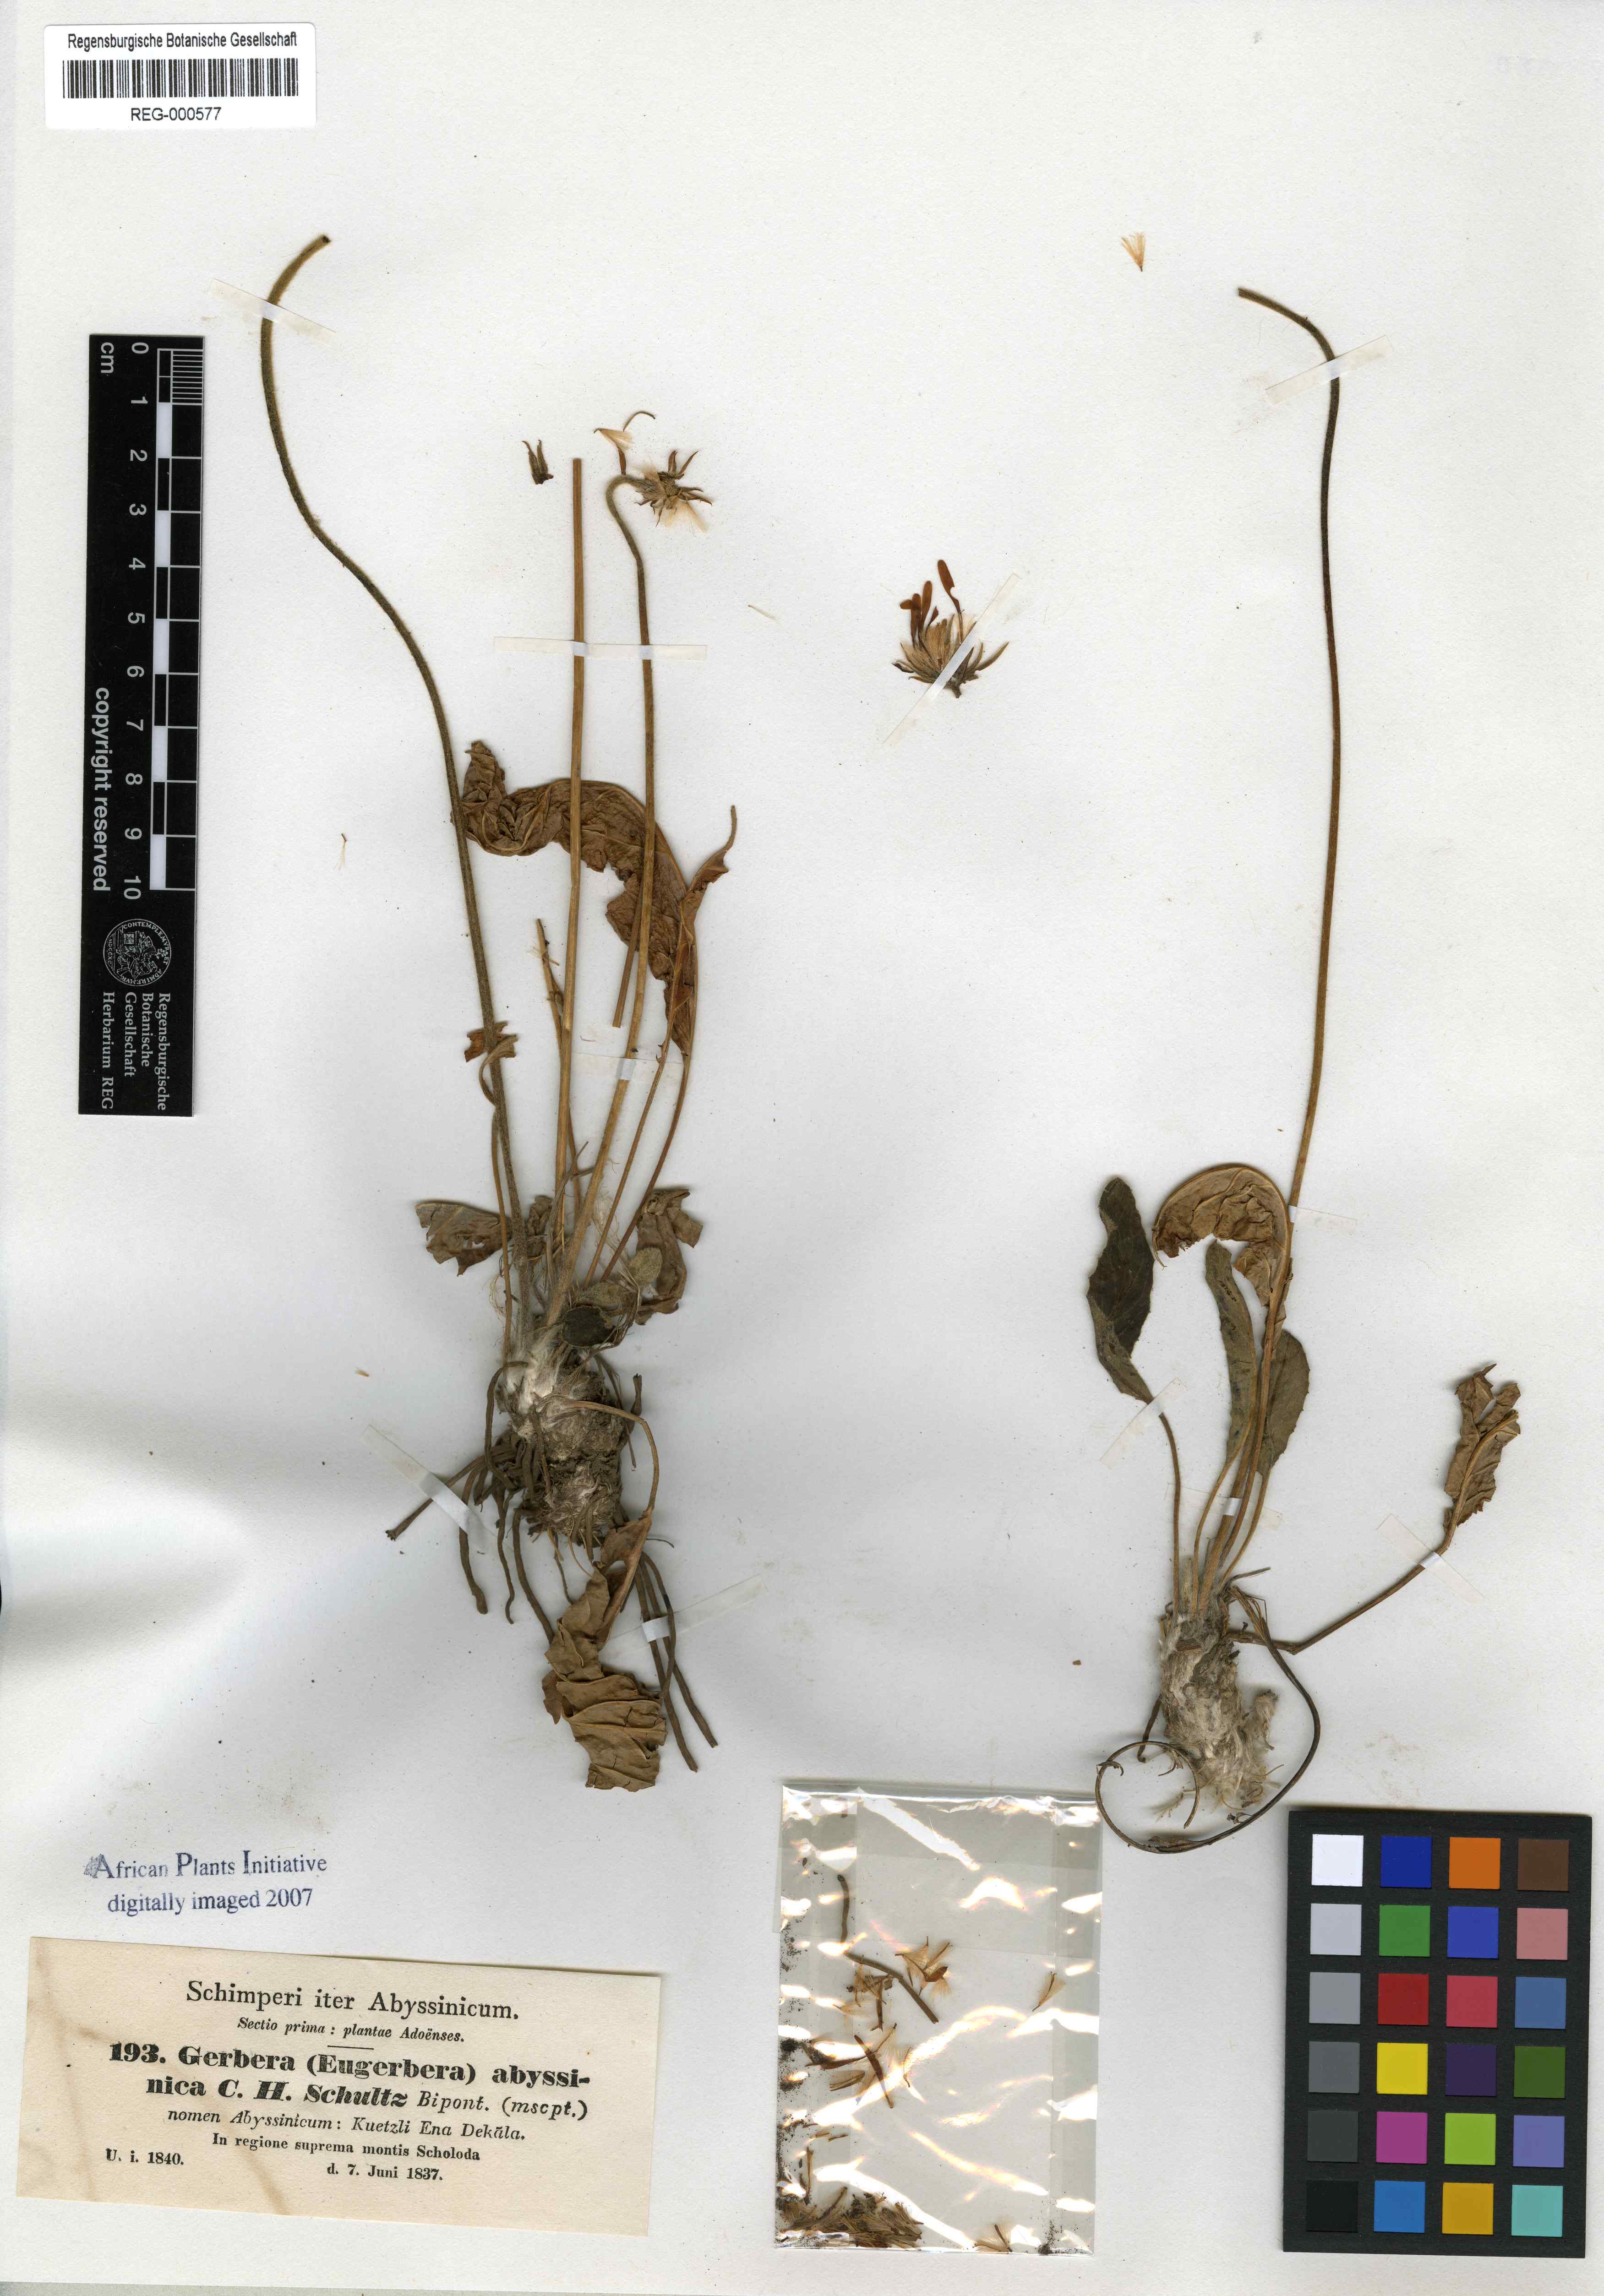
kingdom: Plantae
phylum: Tracheophyta
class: Magnoliopsida
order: Asterales
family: Asteraceae
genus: Gerbera
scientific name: Gerbera viridifolia
